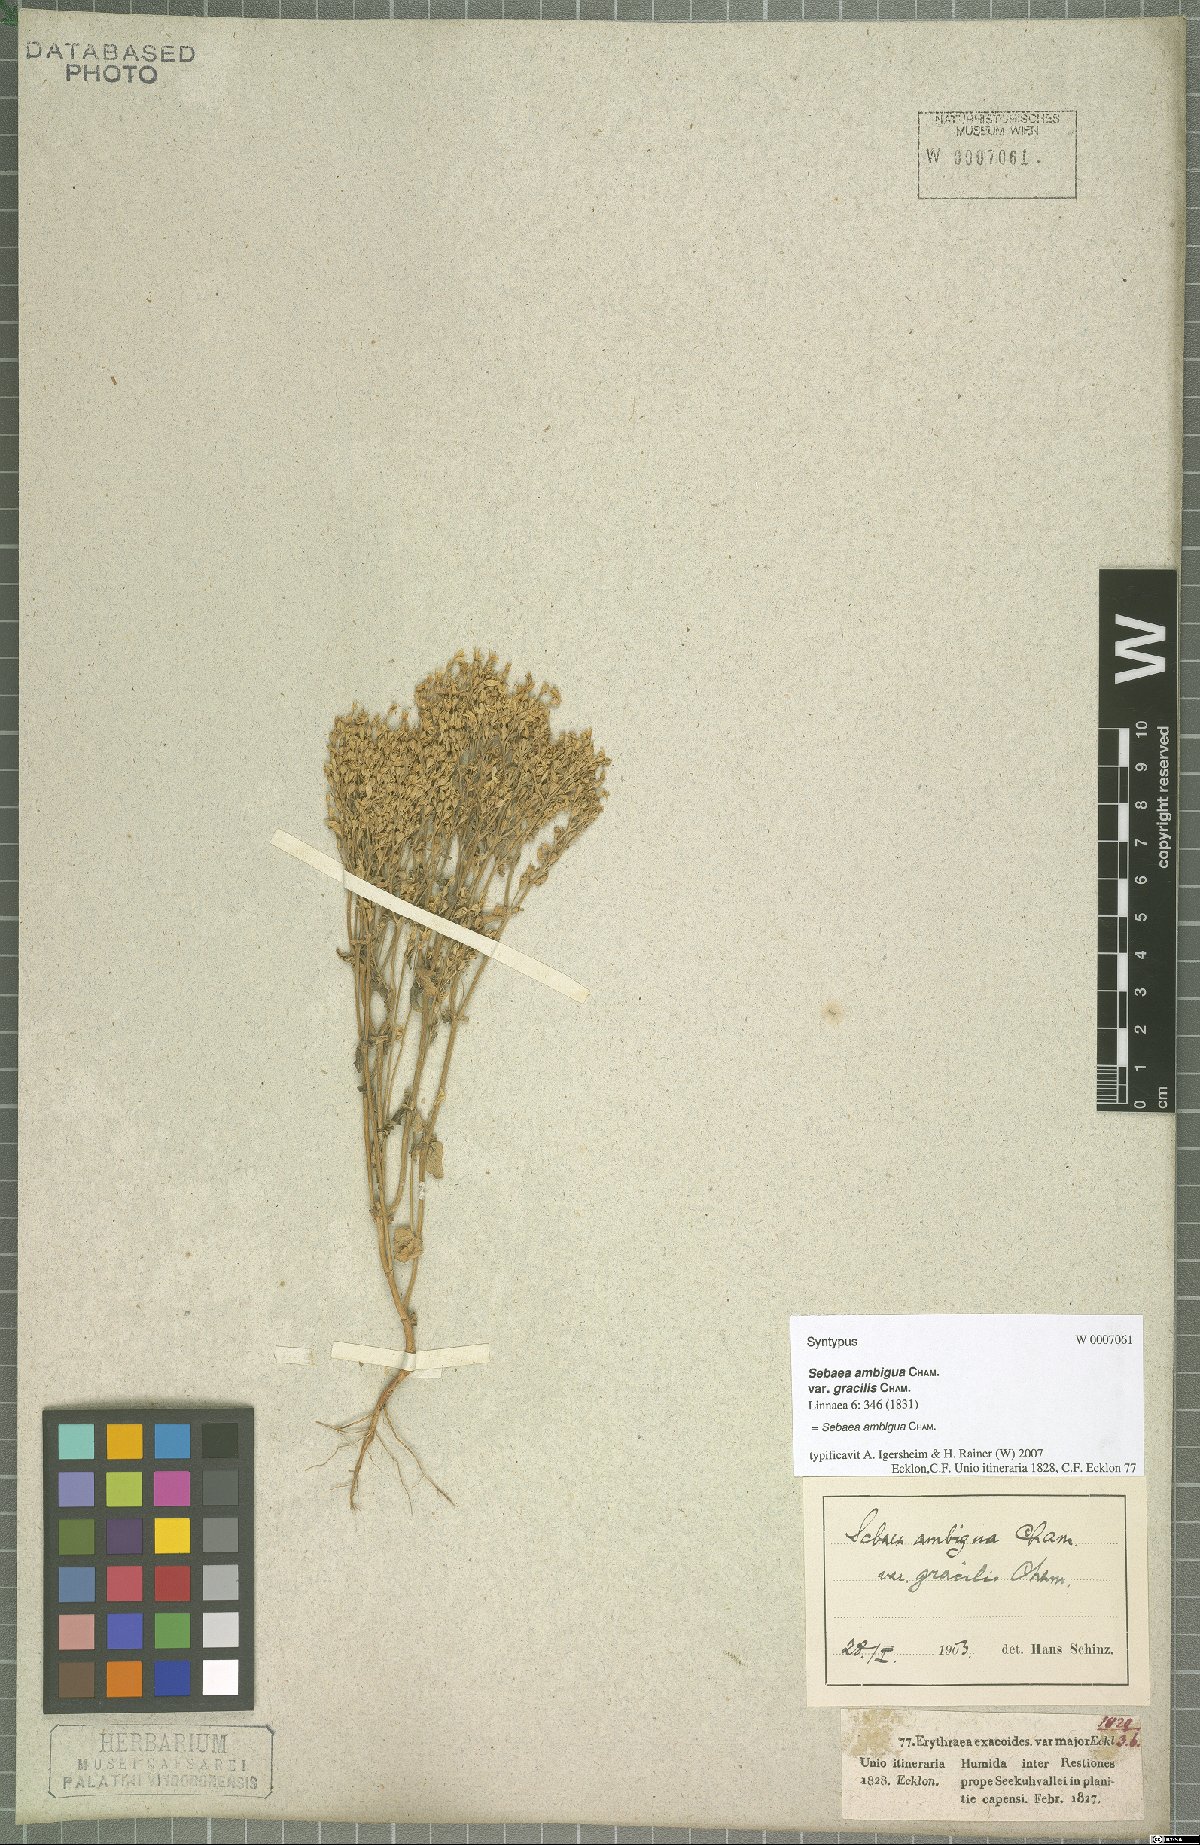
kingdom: Plantae
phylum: Tracheophyta
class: Magnoliopsida
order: Gentianales
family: Gentianaceae
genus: Sebaea
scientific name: Sebaea ambigua
